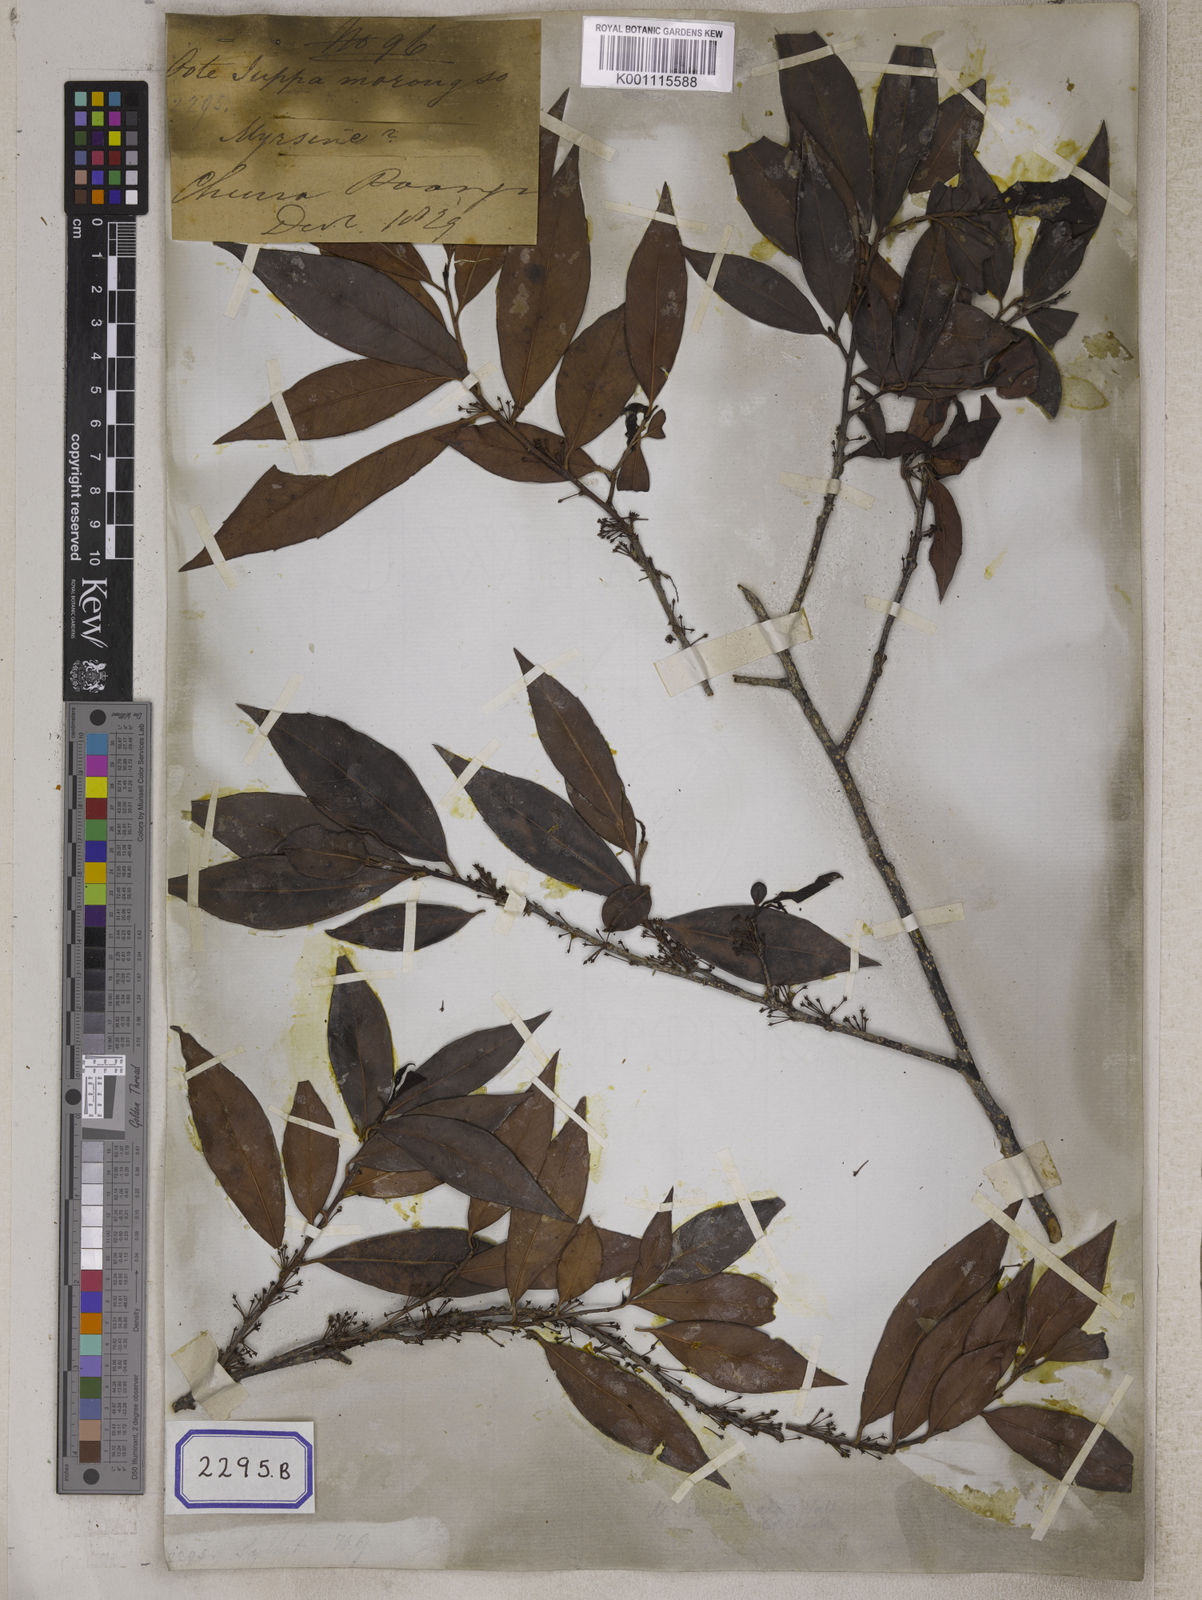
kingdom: Plantae
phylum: Tracheophyta
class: Magnoliopsida
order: Ericales
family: Primulaceae
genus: Myrsine
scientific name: Myrsine semiserrata
